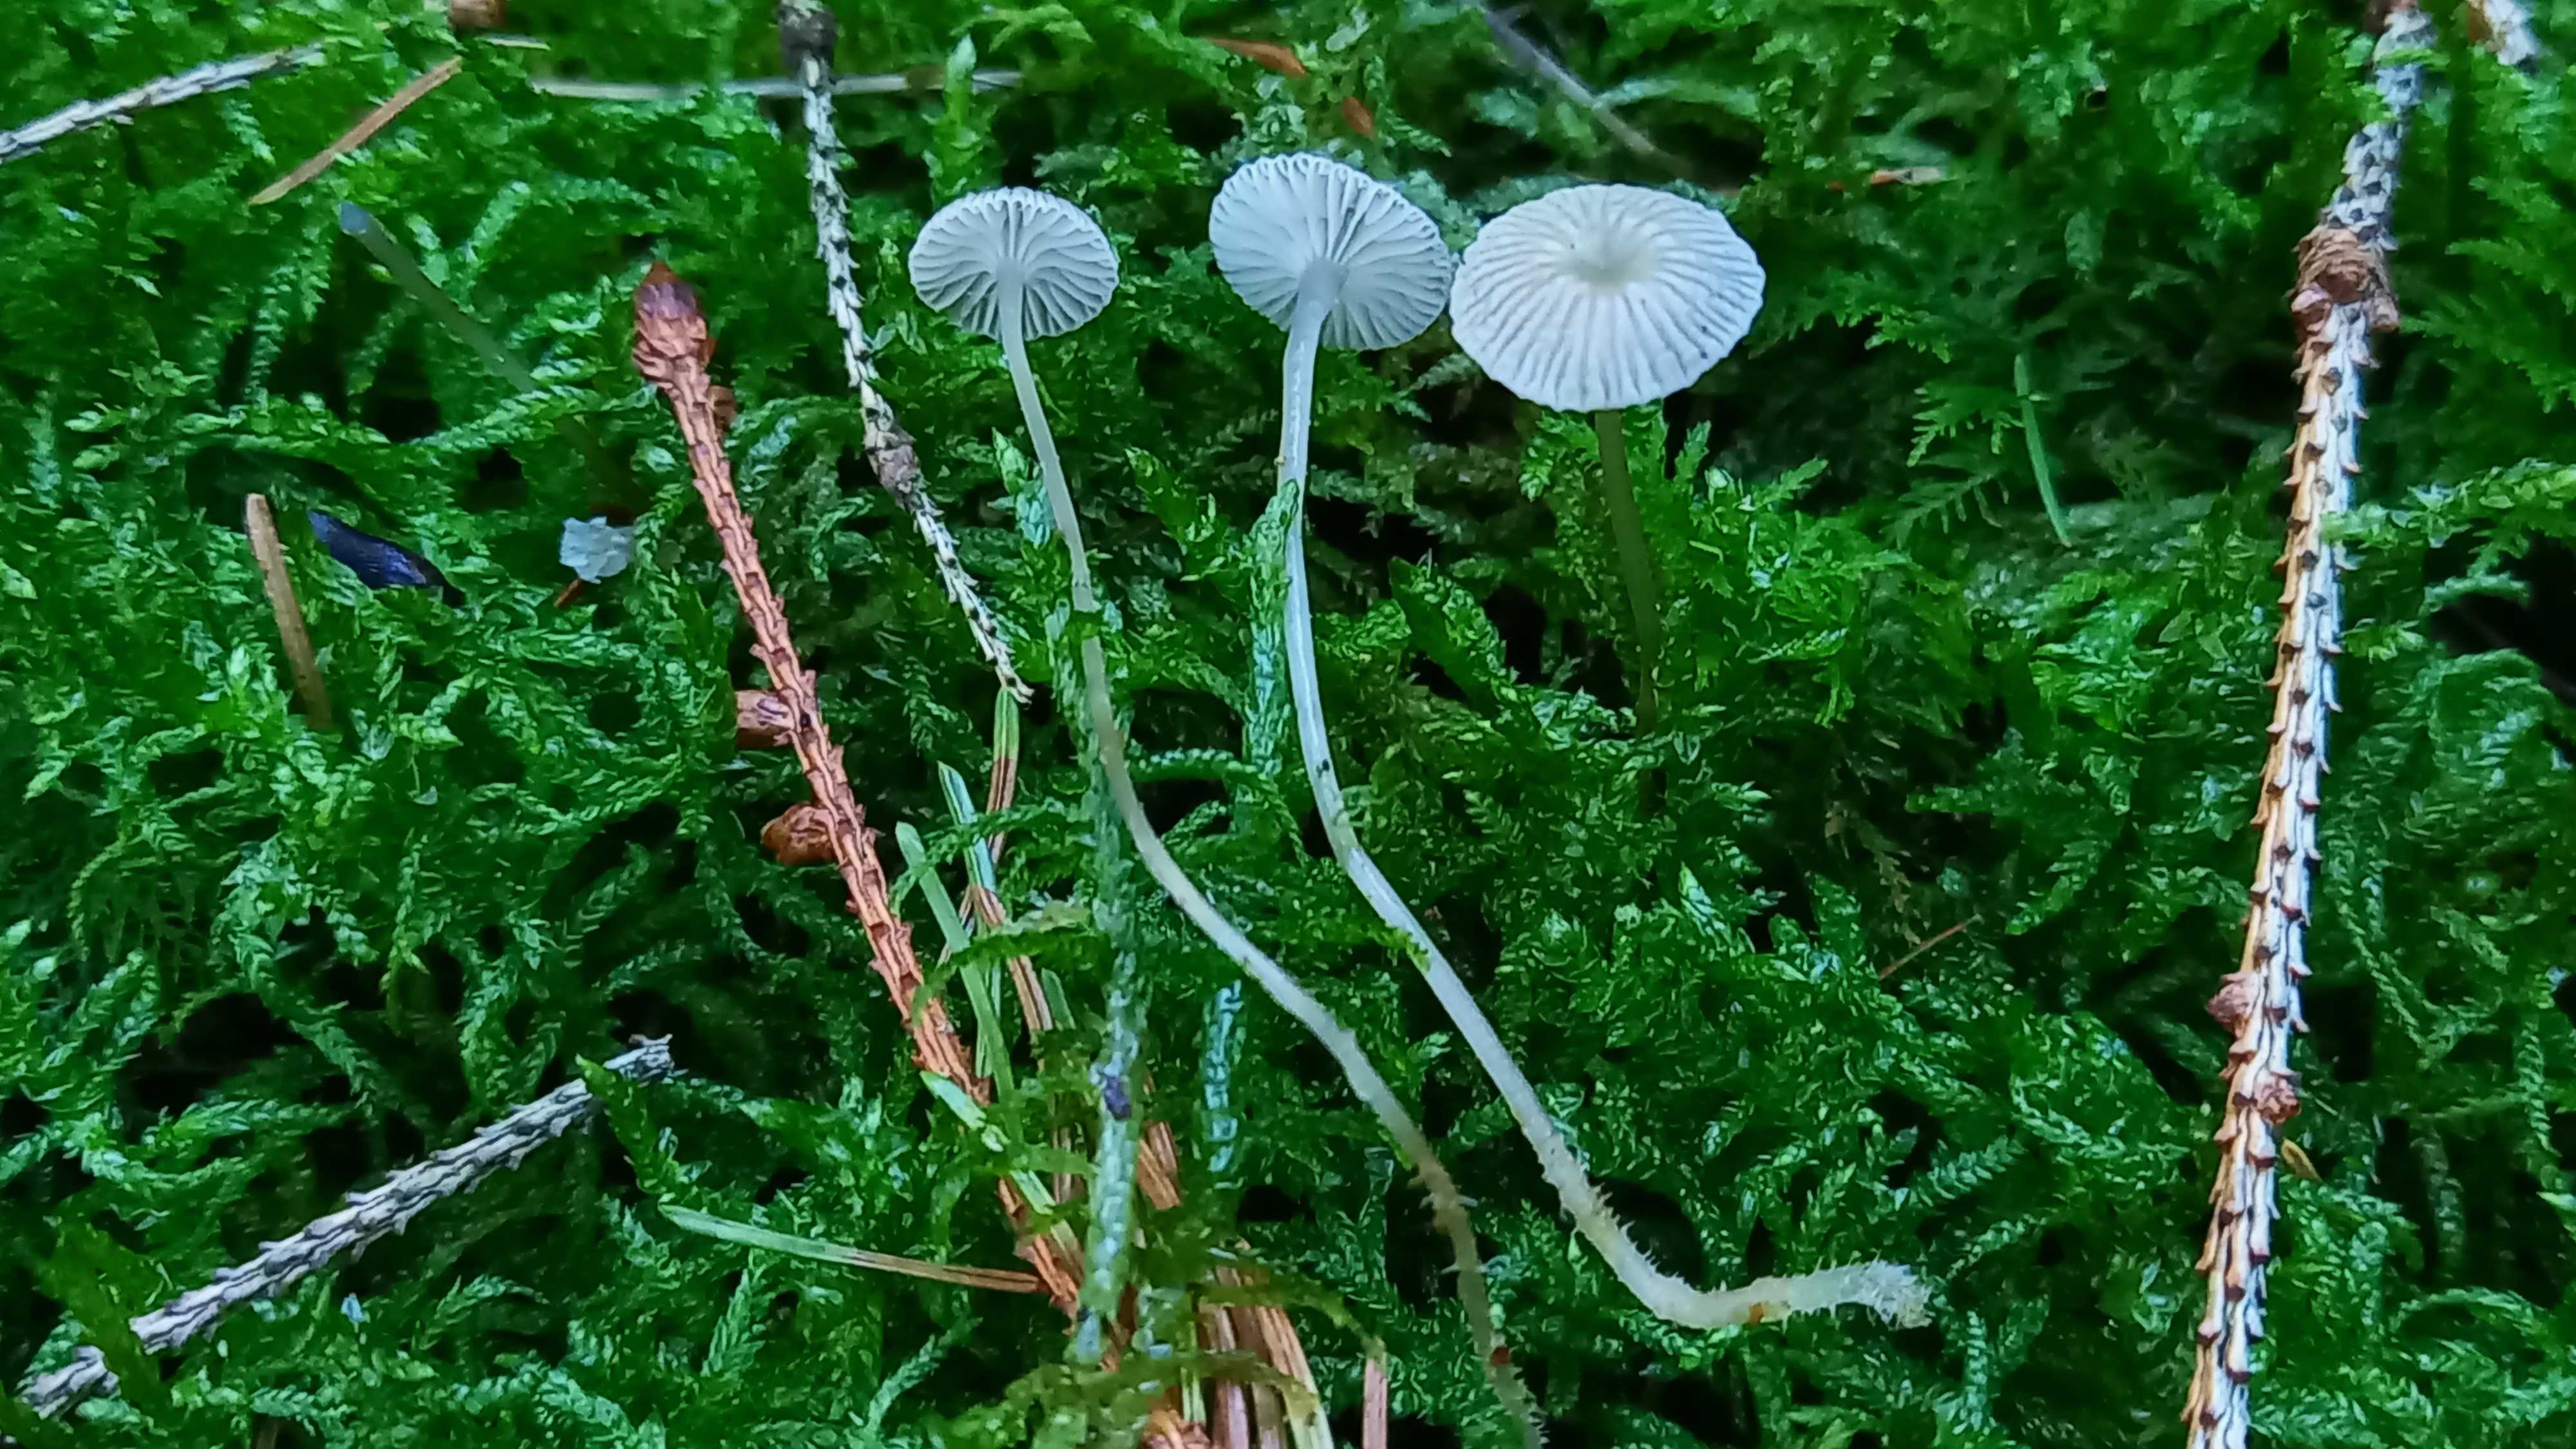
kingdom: Fungi
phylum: Basidiomycota
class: Agaricomycetes
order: Agaricales
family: Mycenaceae
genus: Mycena
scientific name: Mycena
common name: huesvamp
